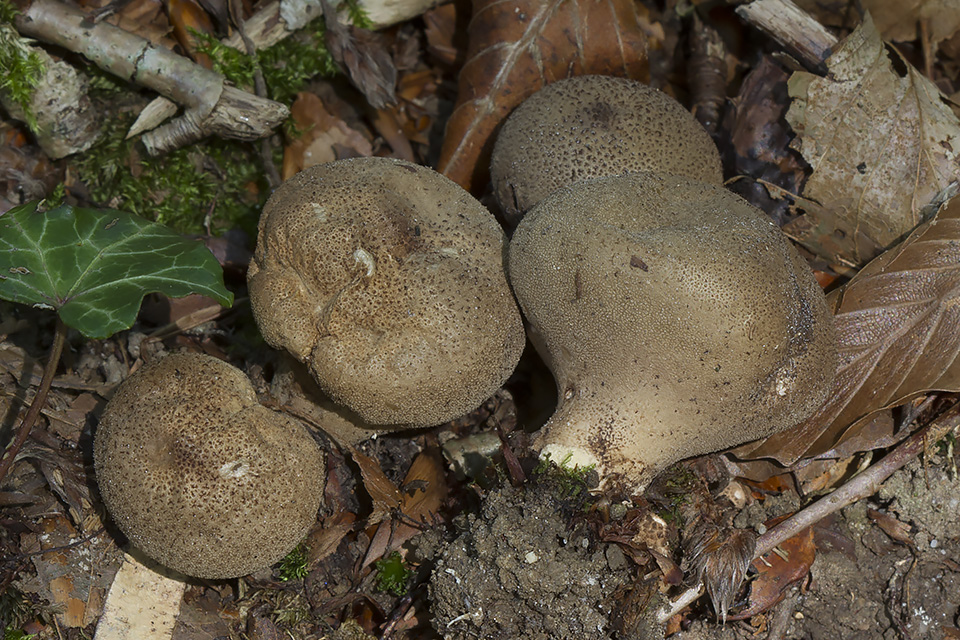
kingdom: Fungi
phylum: Basidiomycota
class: Agaricomycetes
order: Agaricales
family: Lycoperdaceae
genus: Lycoperdon
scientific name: Lycoperdon atropurpureum
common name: Dark-spored puffball
